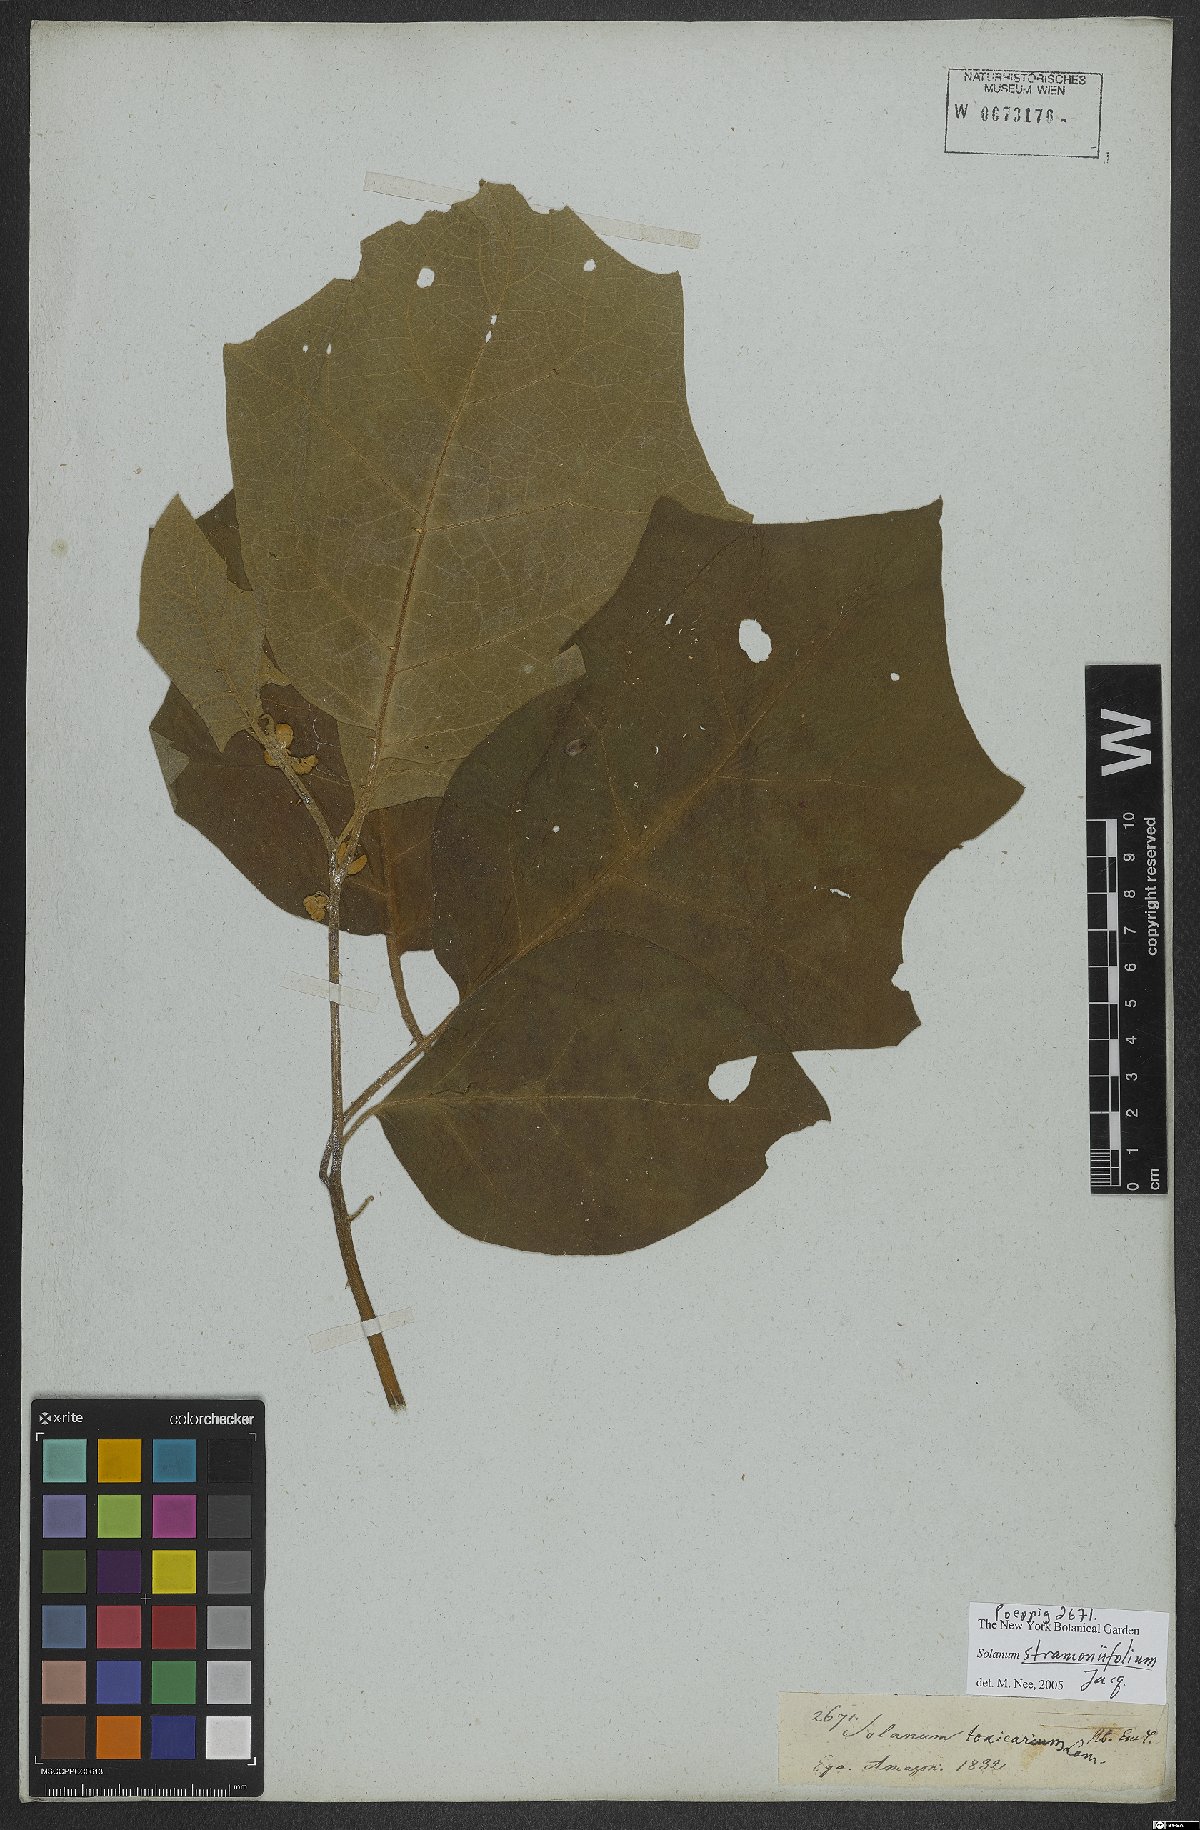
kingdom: Plantae
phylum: Tracheophyta
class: Magnoliopsida
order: Solanales
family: Solanaceae
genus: Solanum
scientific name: Solanum stramonifolium
